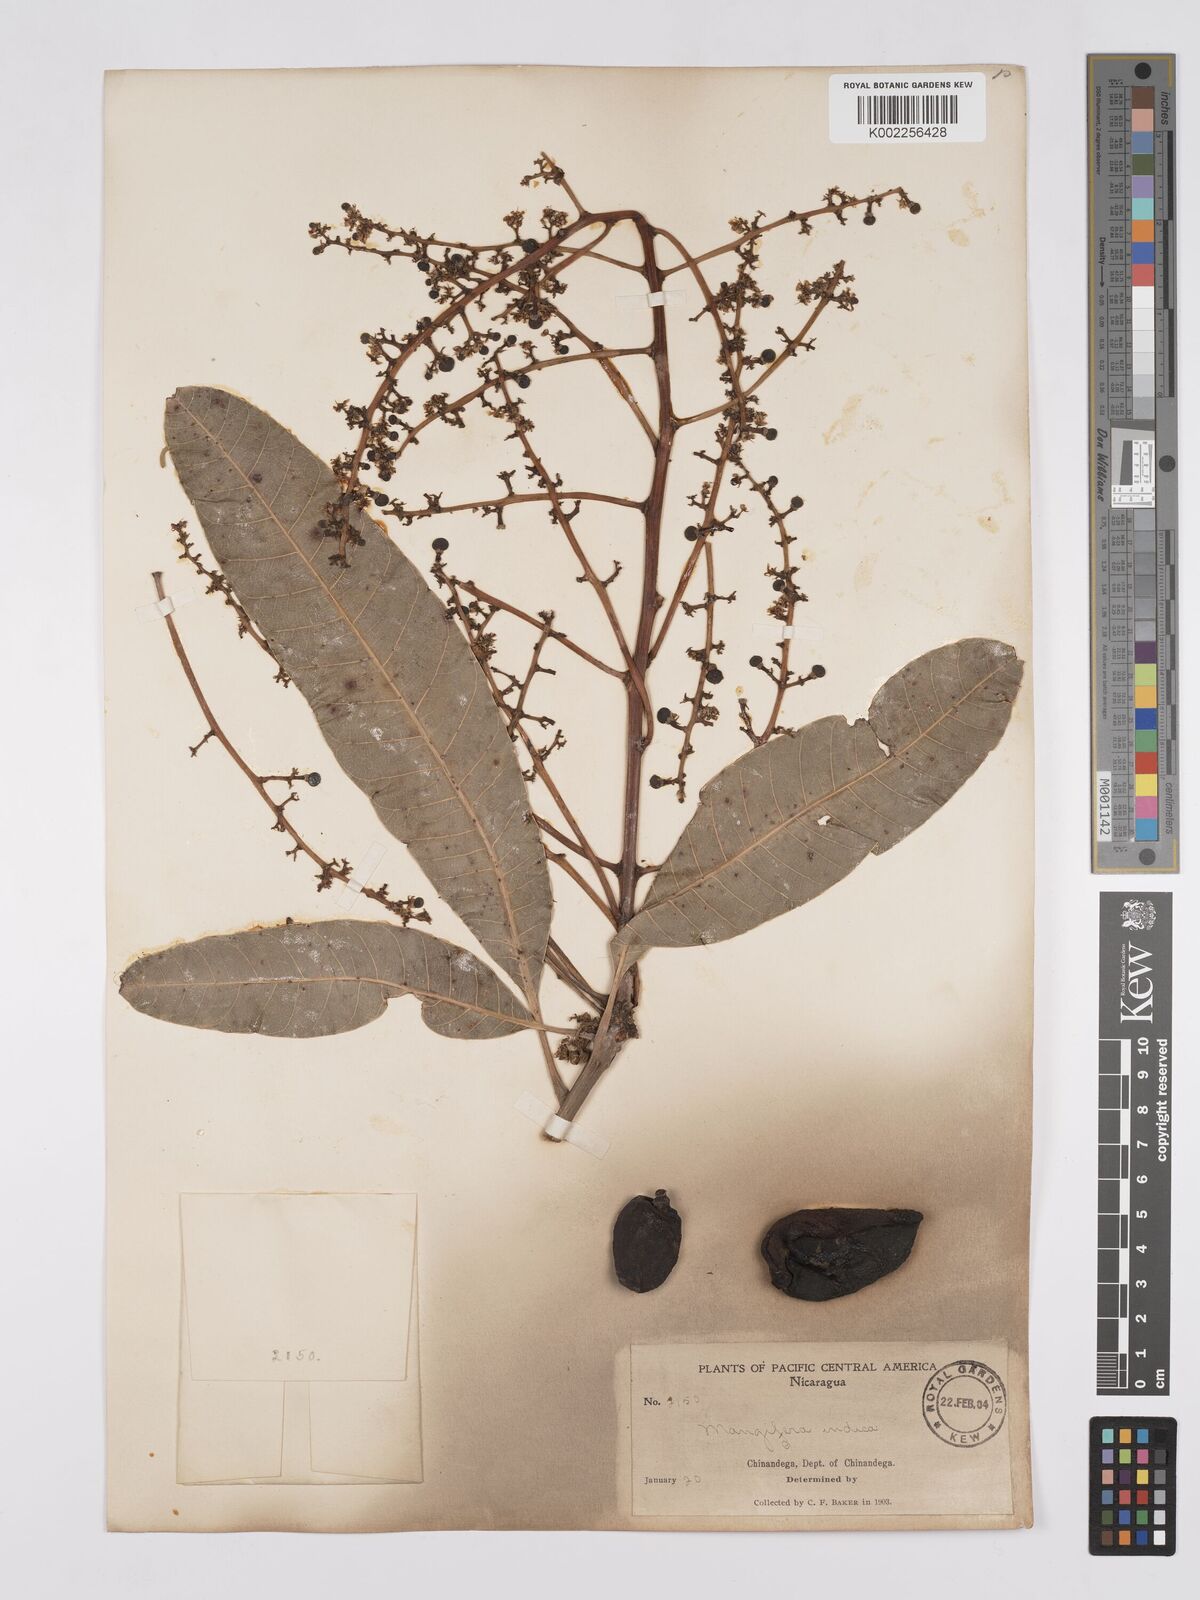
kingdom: Plantae
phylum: Tracheophyta
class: Magnoliopsida
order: Sapindales
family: Anacardiaceae
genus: Mangifera
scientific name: Mangifera indica
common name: Mango
